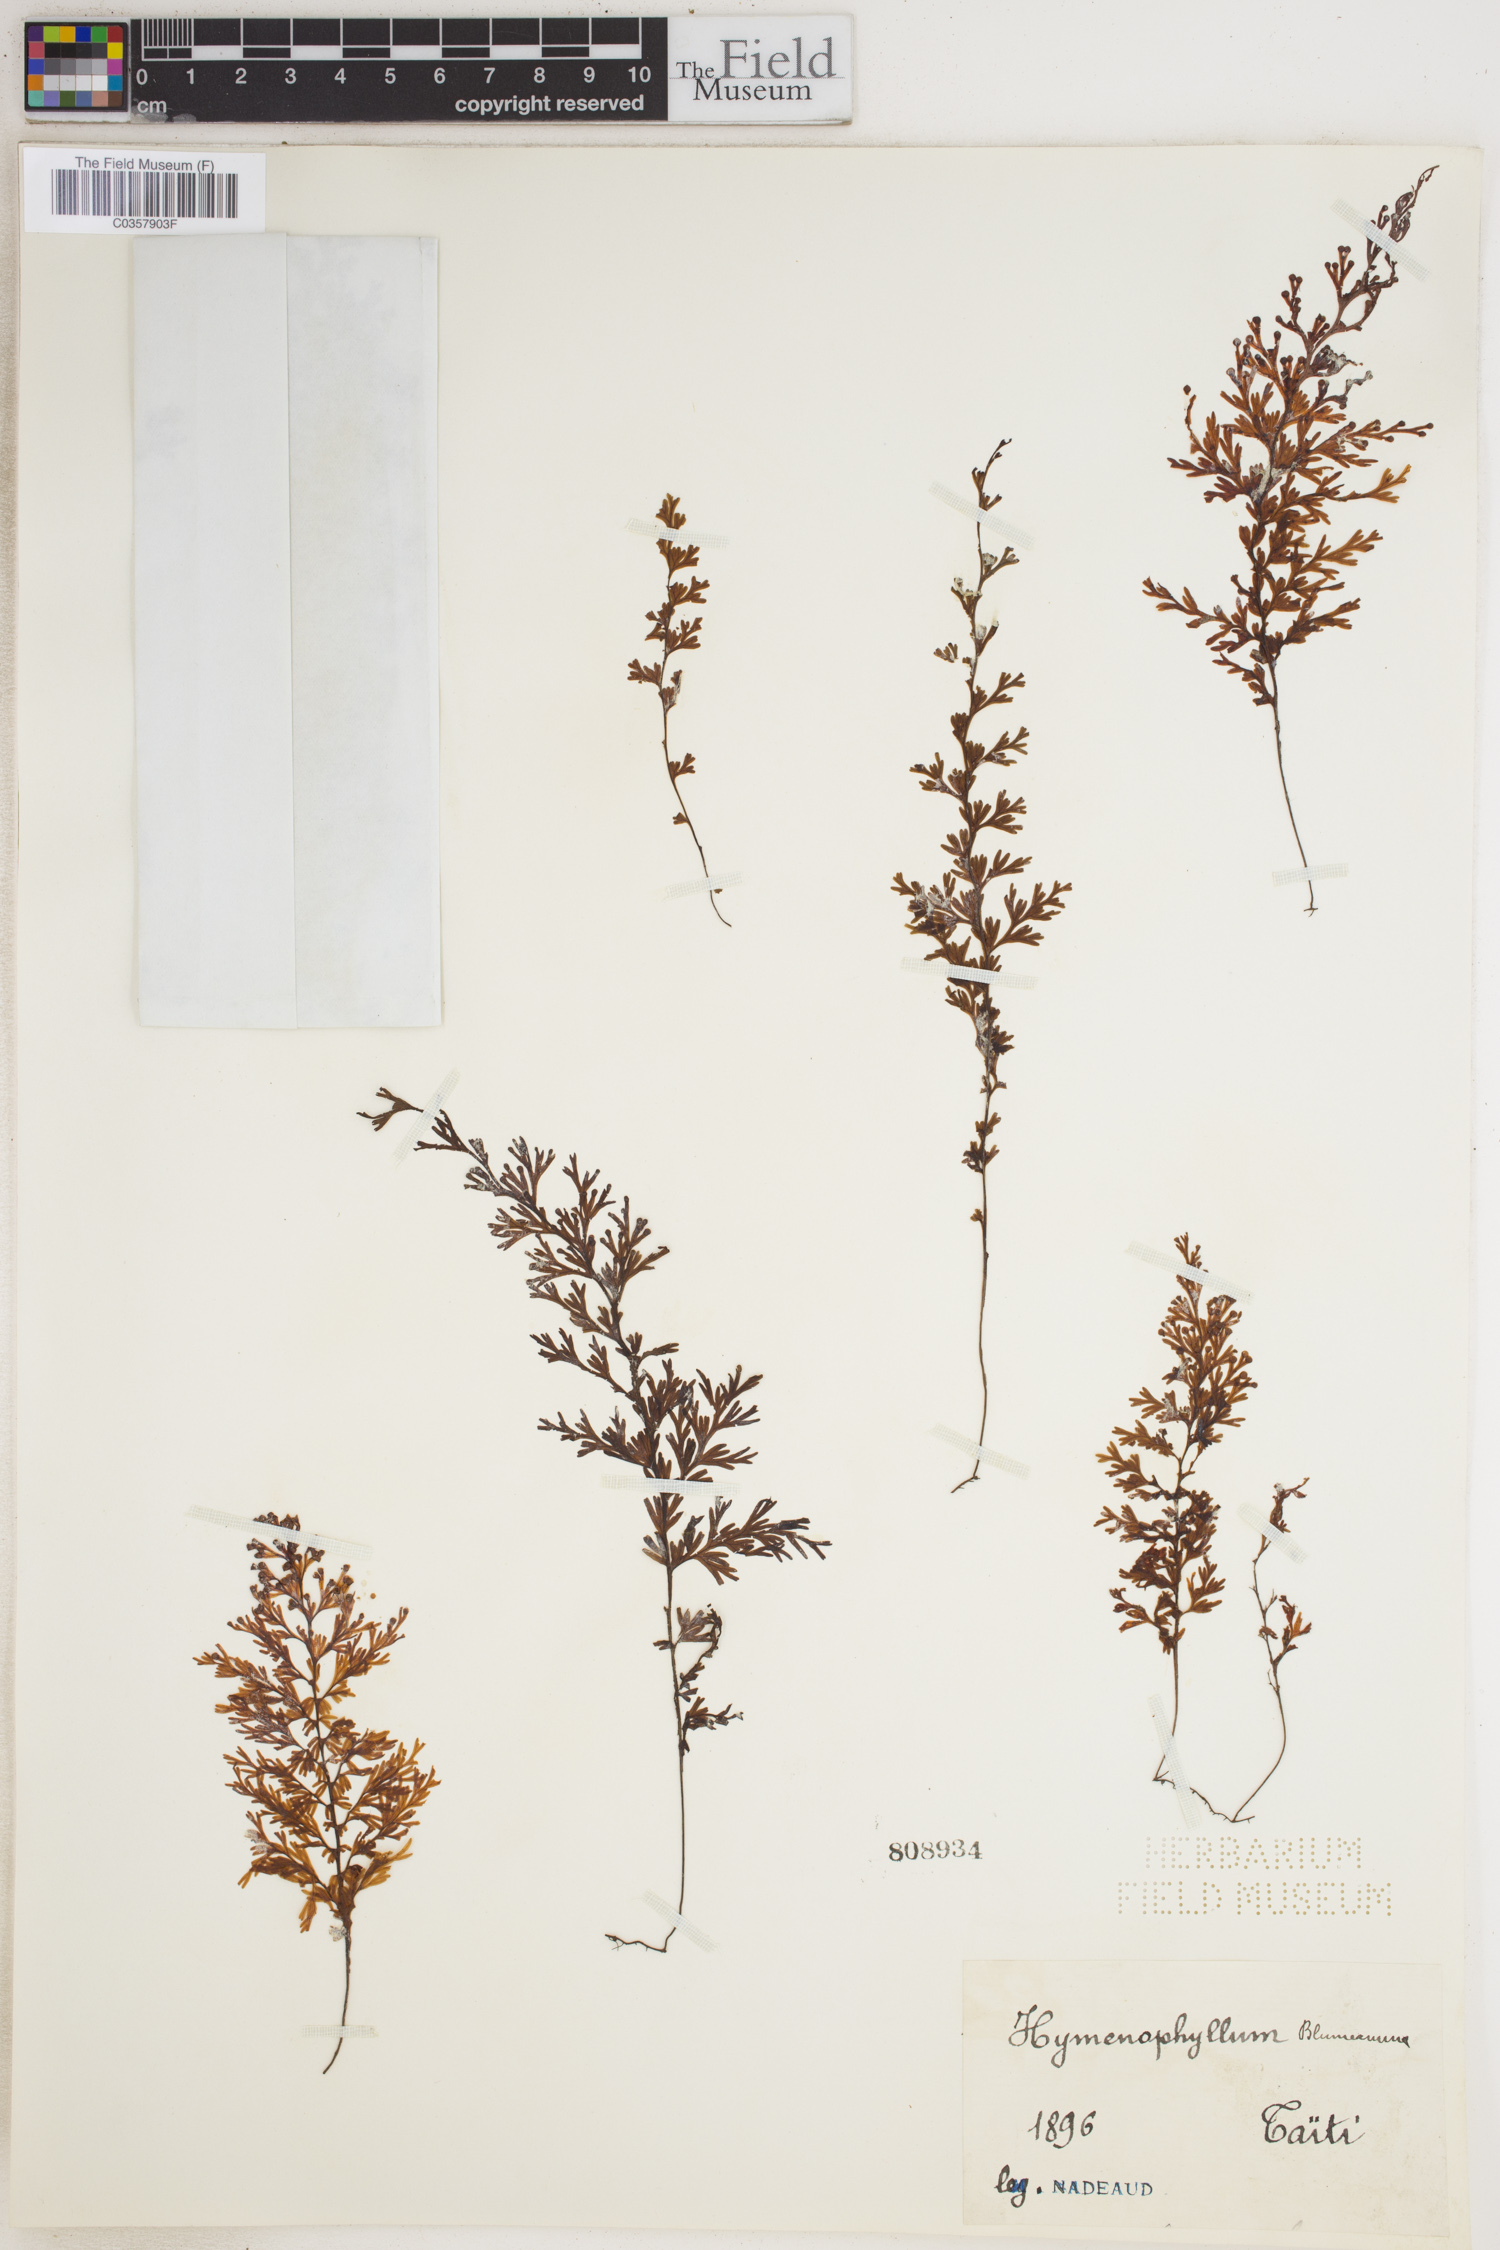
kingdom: Plantae
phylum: Tracheophyta
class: Polypodiopsida
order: Hymenophyllales
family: Hymenophyllaceae
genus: Hymenophyllum
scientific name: Hymenophyllum fumarioides
